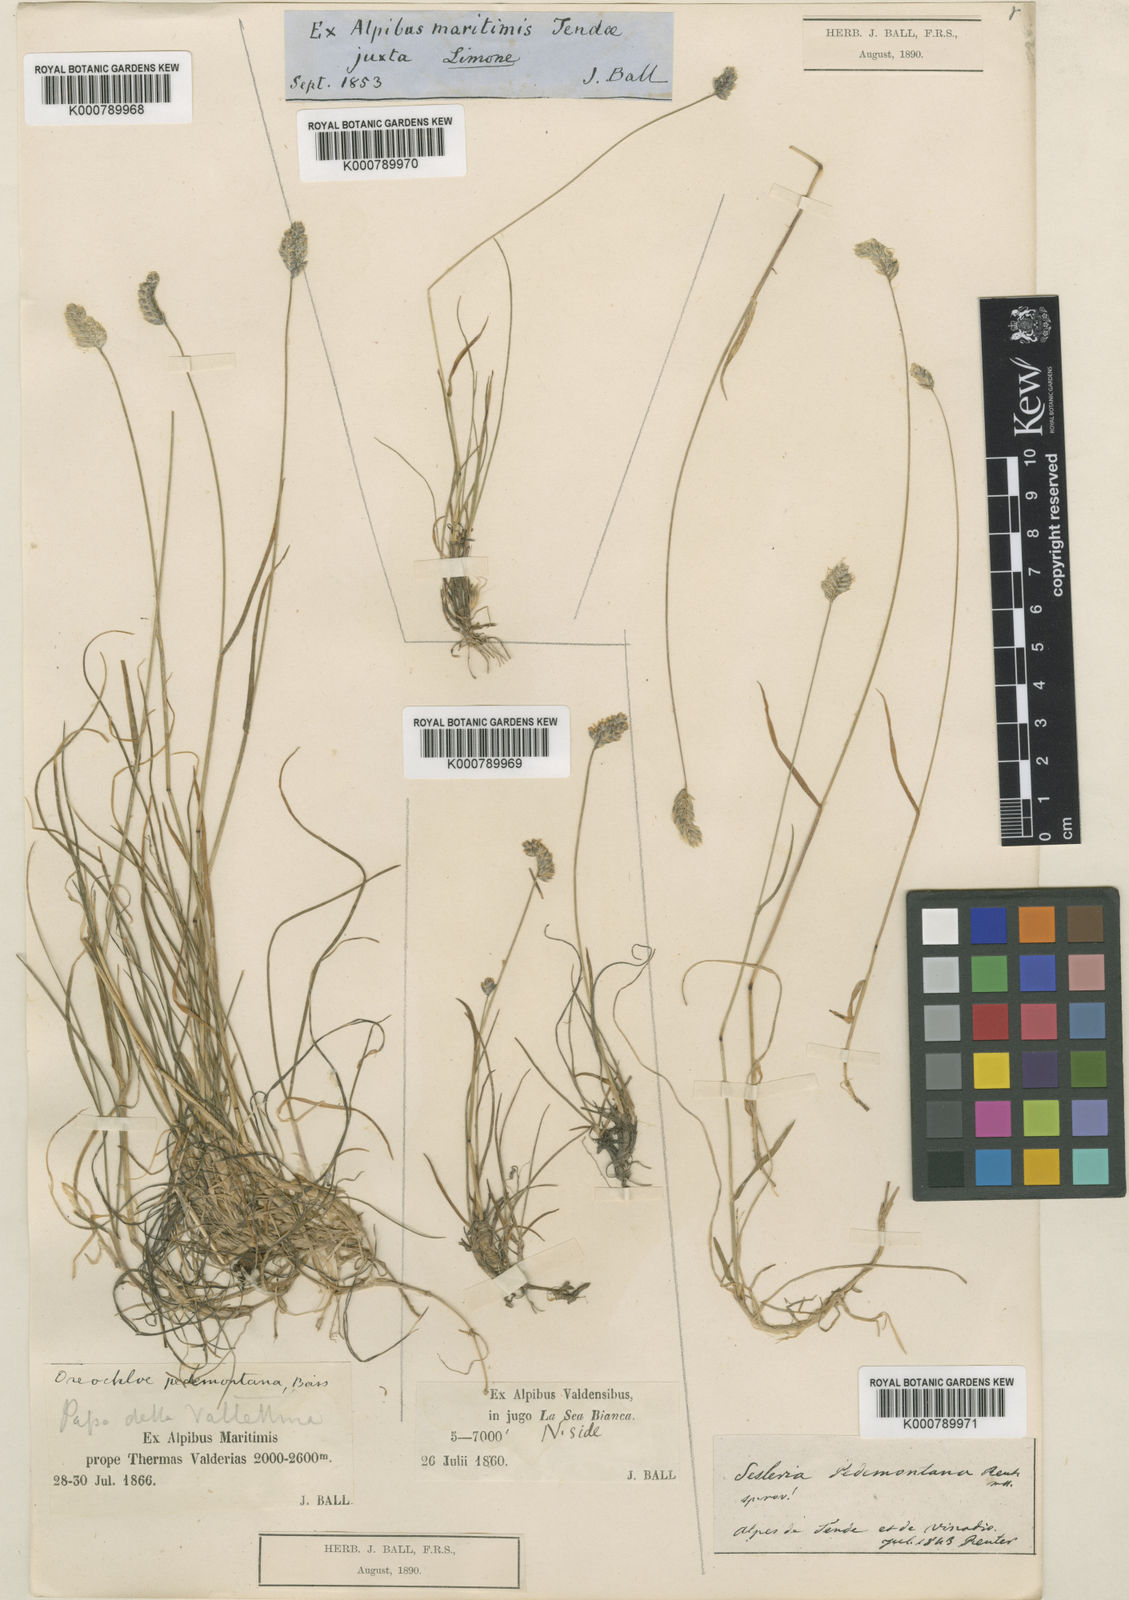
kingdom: Plantae
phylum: Tracheophyta
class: Liliopsida
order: Poales
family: Poaceae
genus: Oreochloa
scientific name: Oreochloa seslerioides
